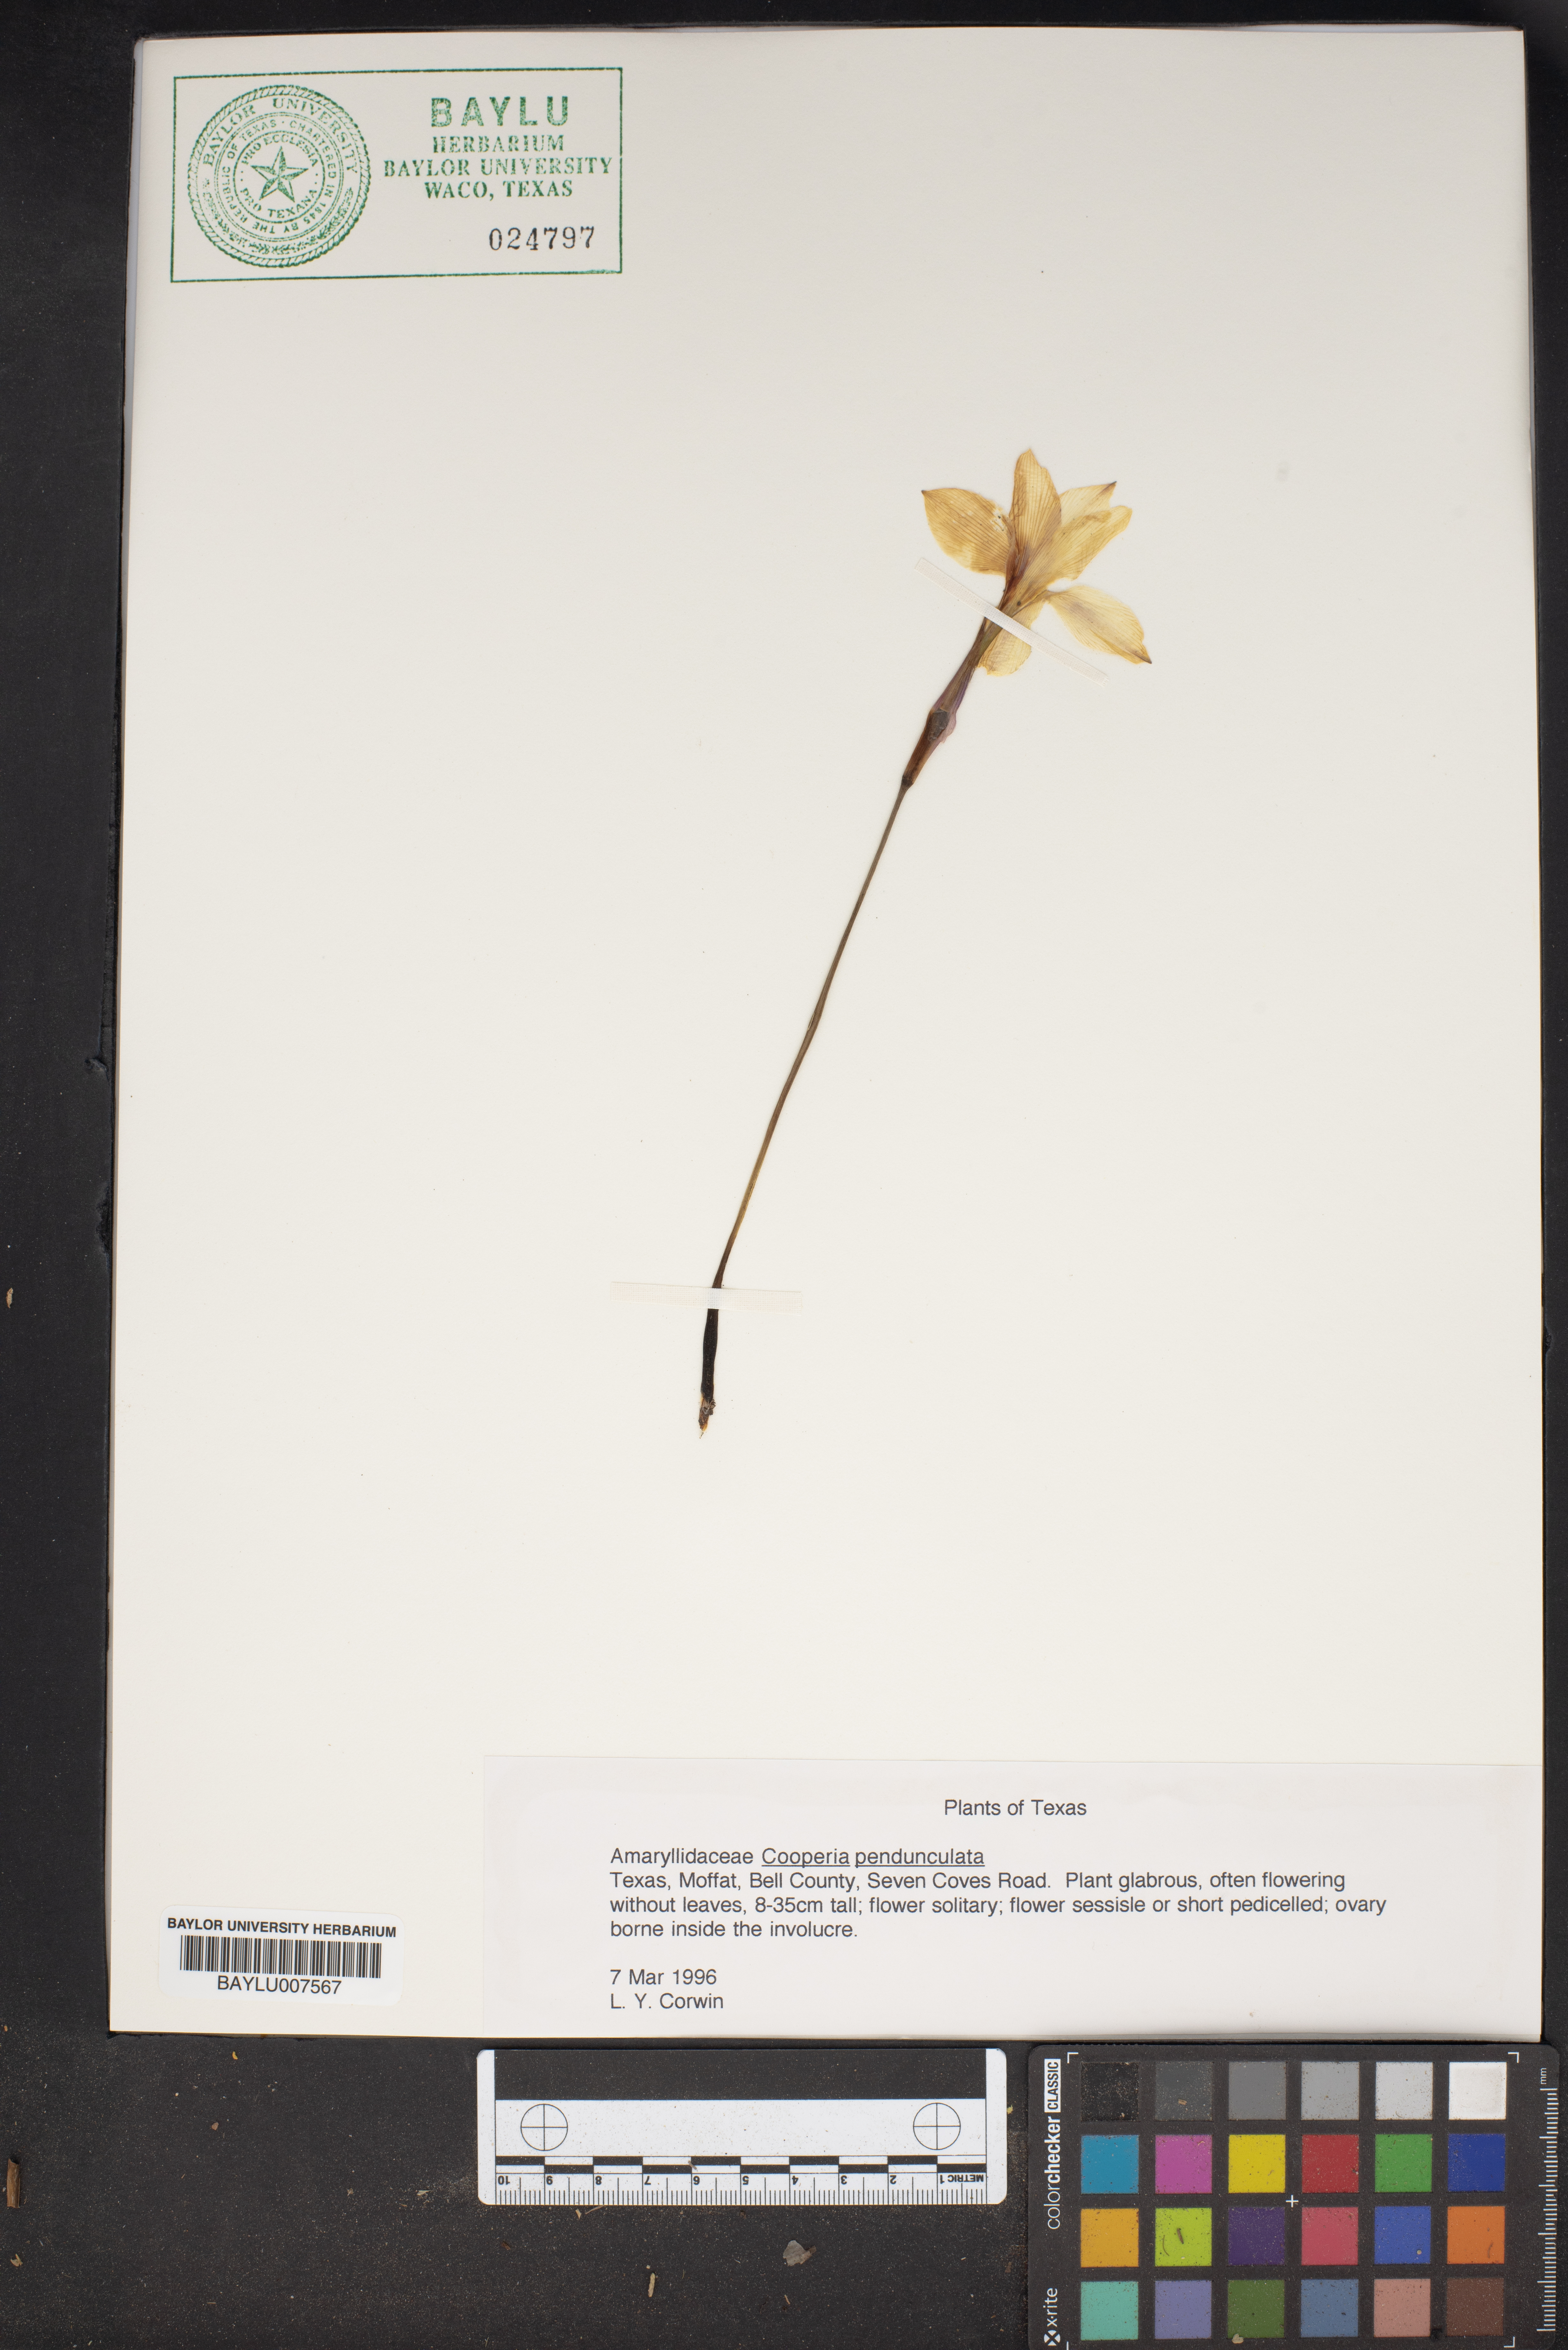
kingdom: Plantae
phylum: Tracheophyta
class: Liliopsida
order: Asparagales
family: Amaryllidaceae
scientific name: Amaryllidaceae
